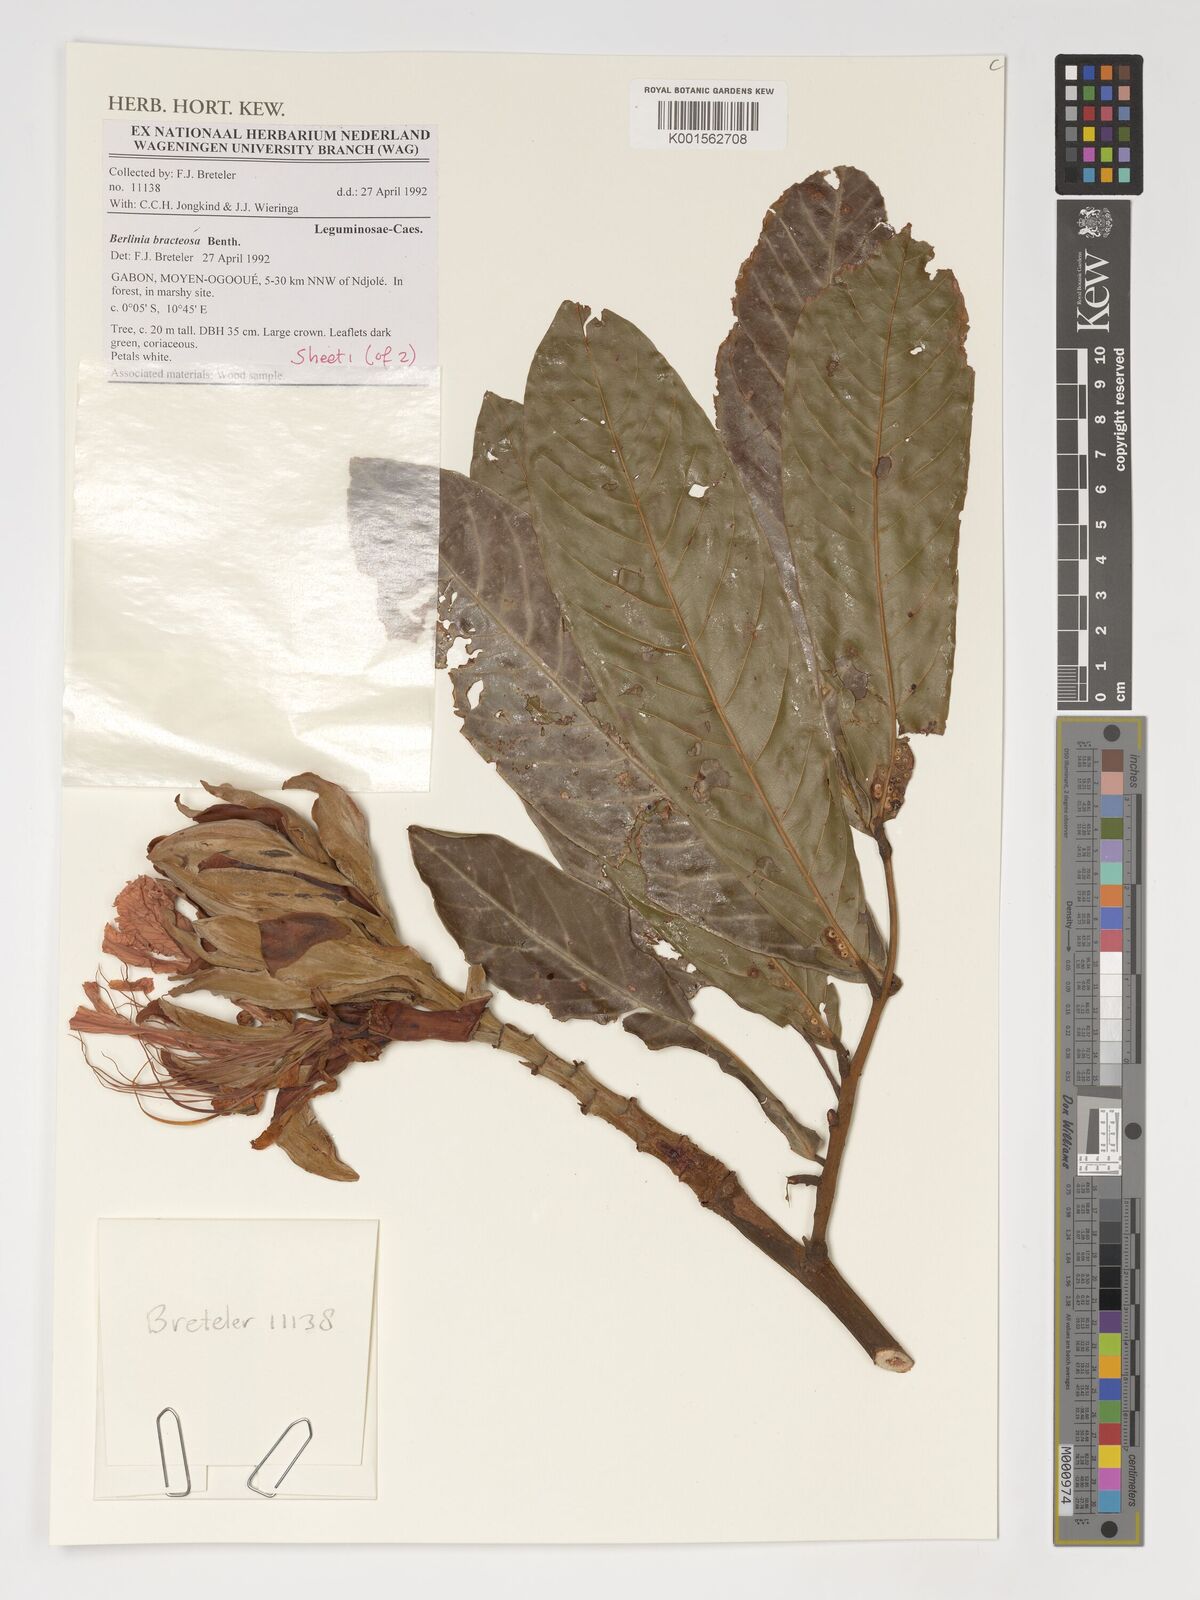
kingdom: Plantae
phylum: Tracheophyta
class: Magnoliopsida
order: Fabales
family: Fabaceae
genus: Berlinia
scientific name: Berlinia bracteosa
